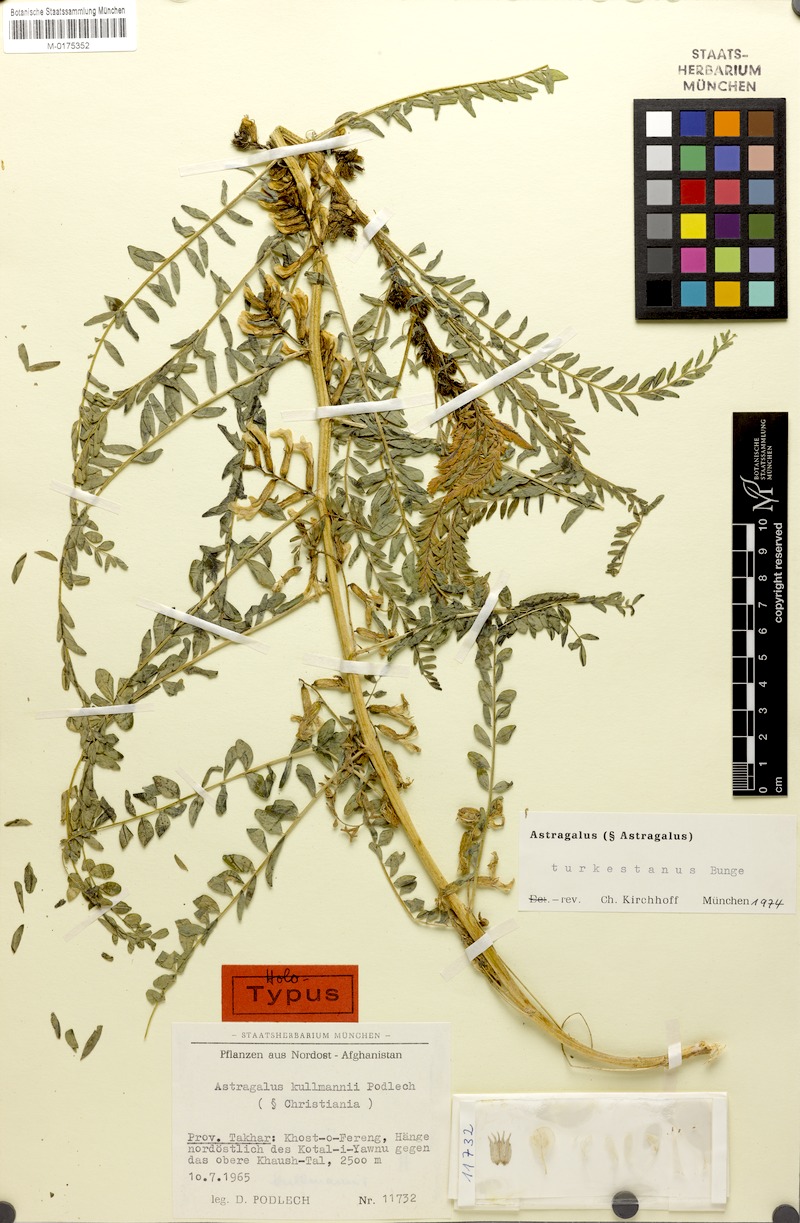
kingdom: Plantae
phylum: Tracheophyta
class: Magnoliopsida
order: Fabales
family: Fabaceae
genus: Astragalus
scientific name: Astragalus turkestanus
